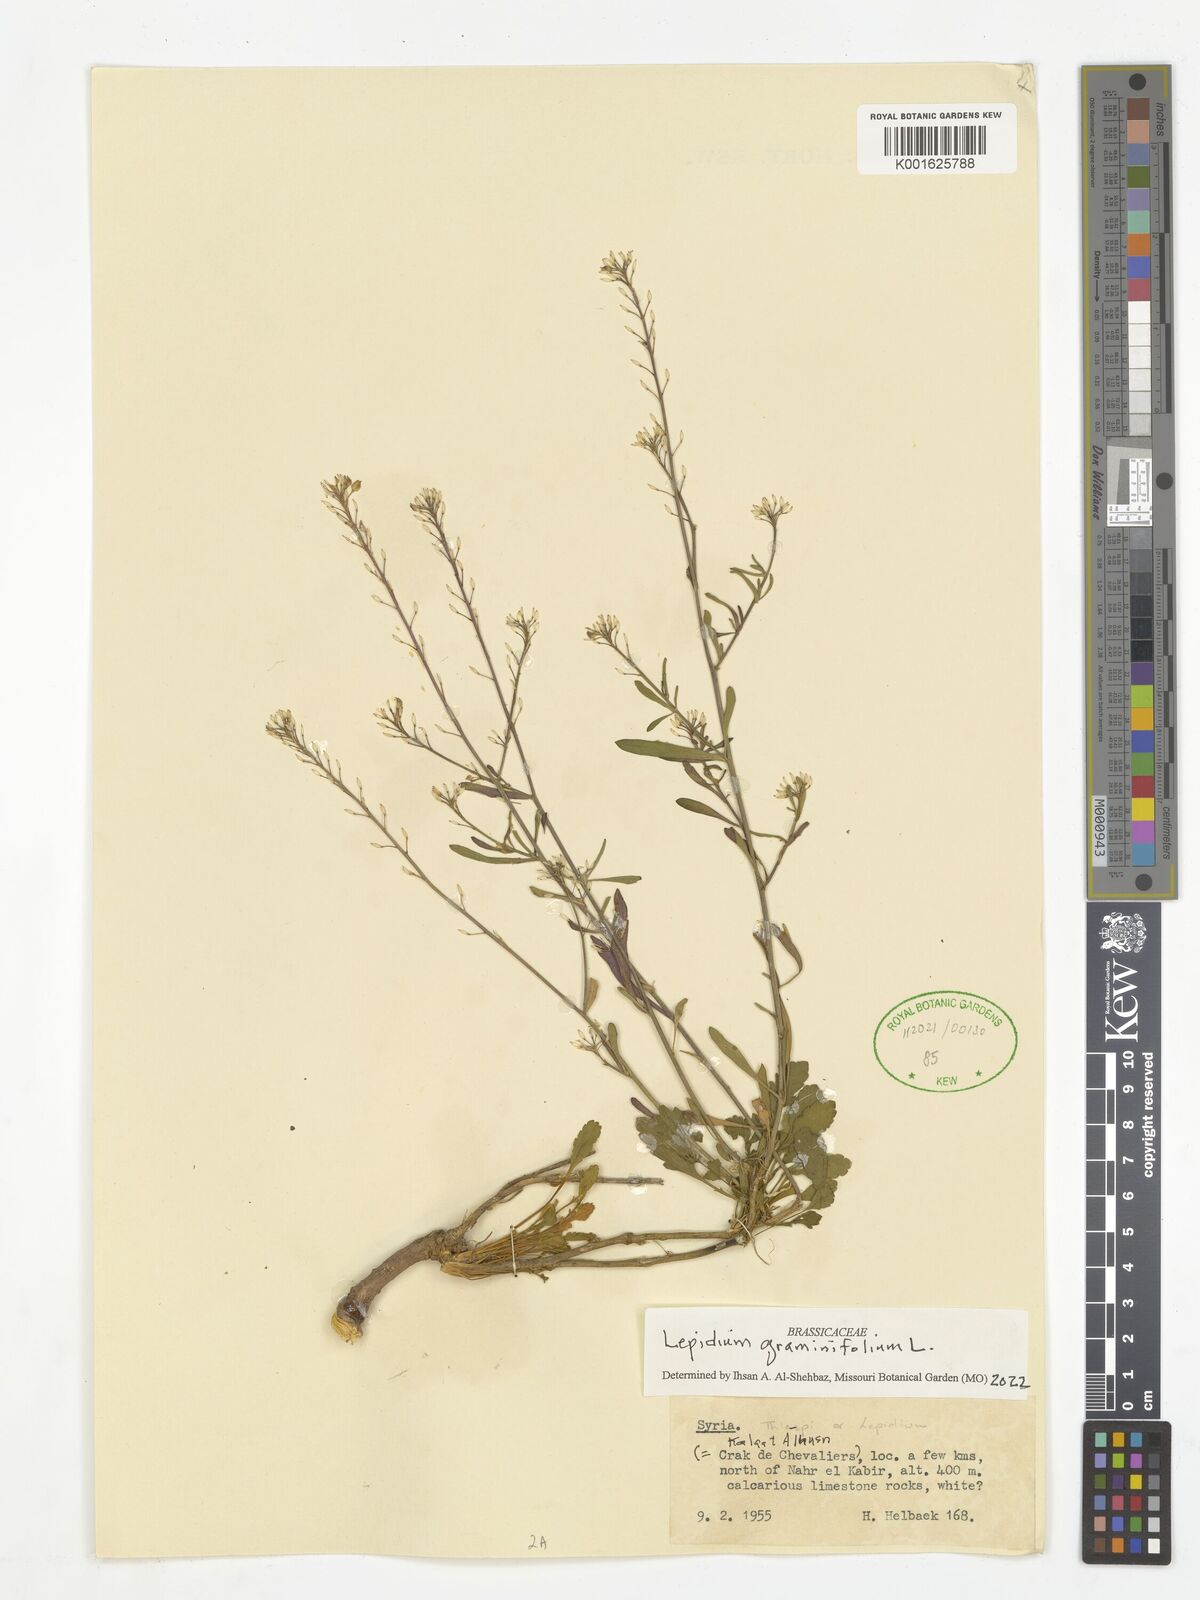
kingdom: Plantae
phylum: Tracheophyta
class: Magnoliopsida
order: Brassicales
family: Brassicaceae
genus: Lepidium
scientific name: Lepidium graminifolium
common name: Tall pepperwort
